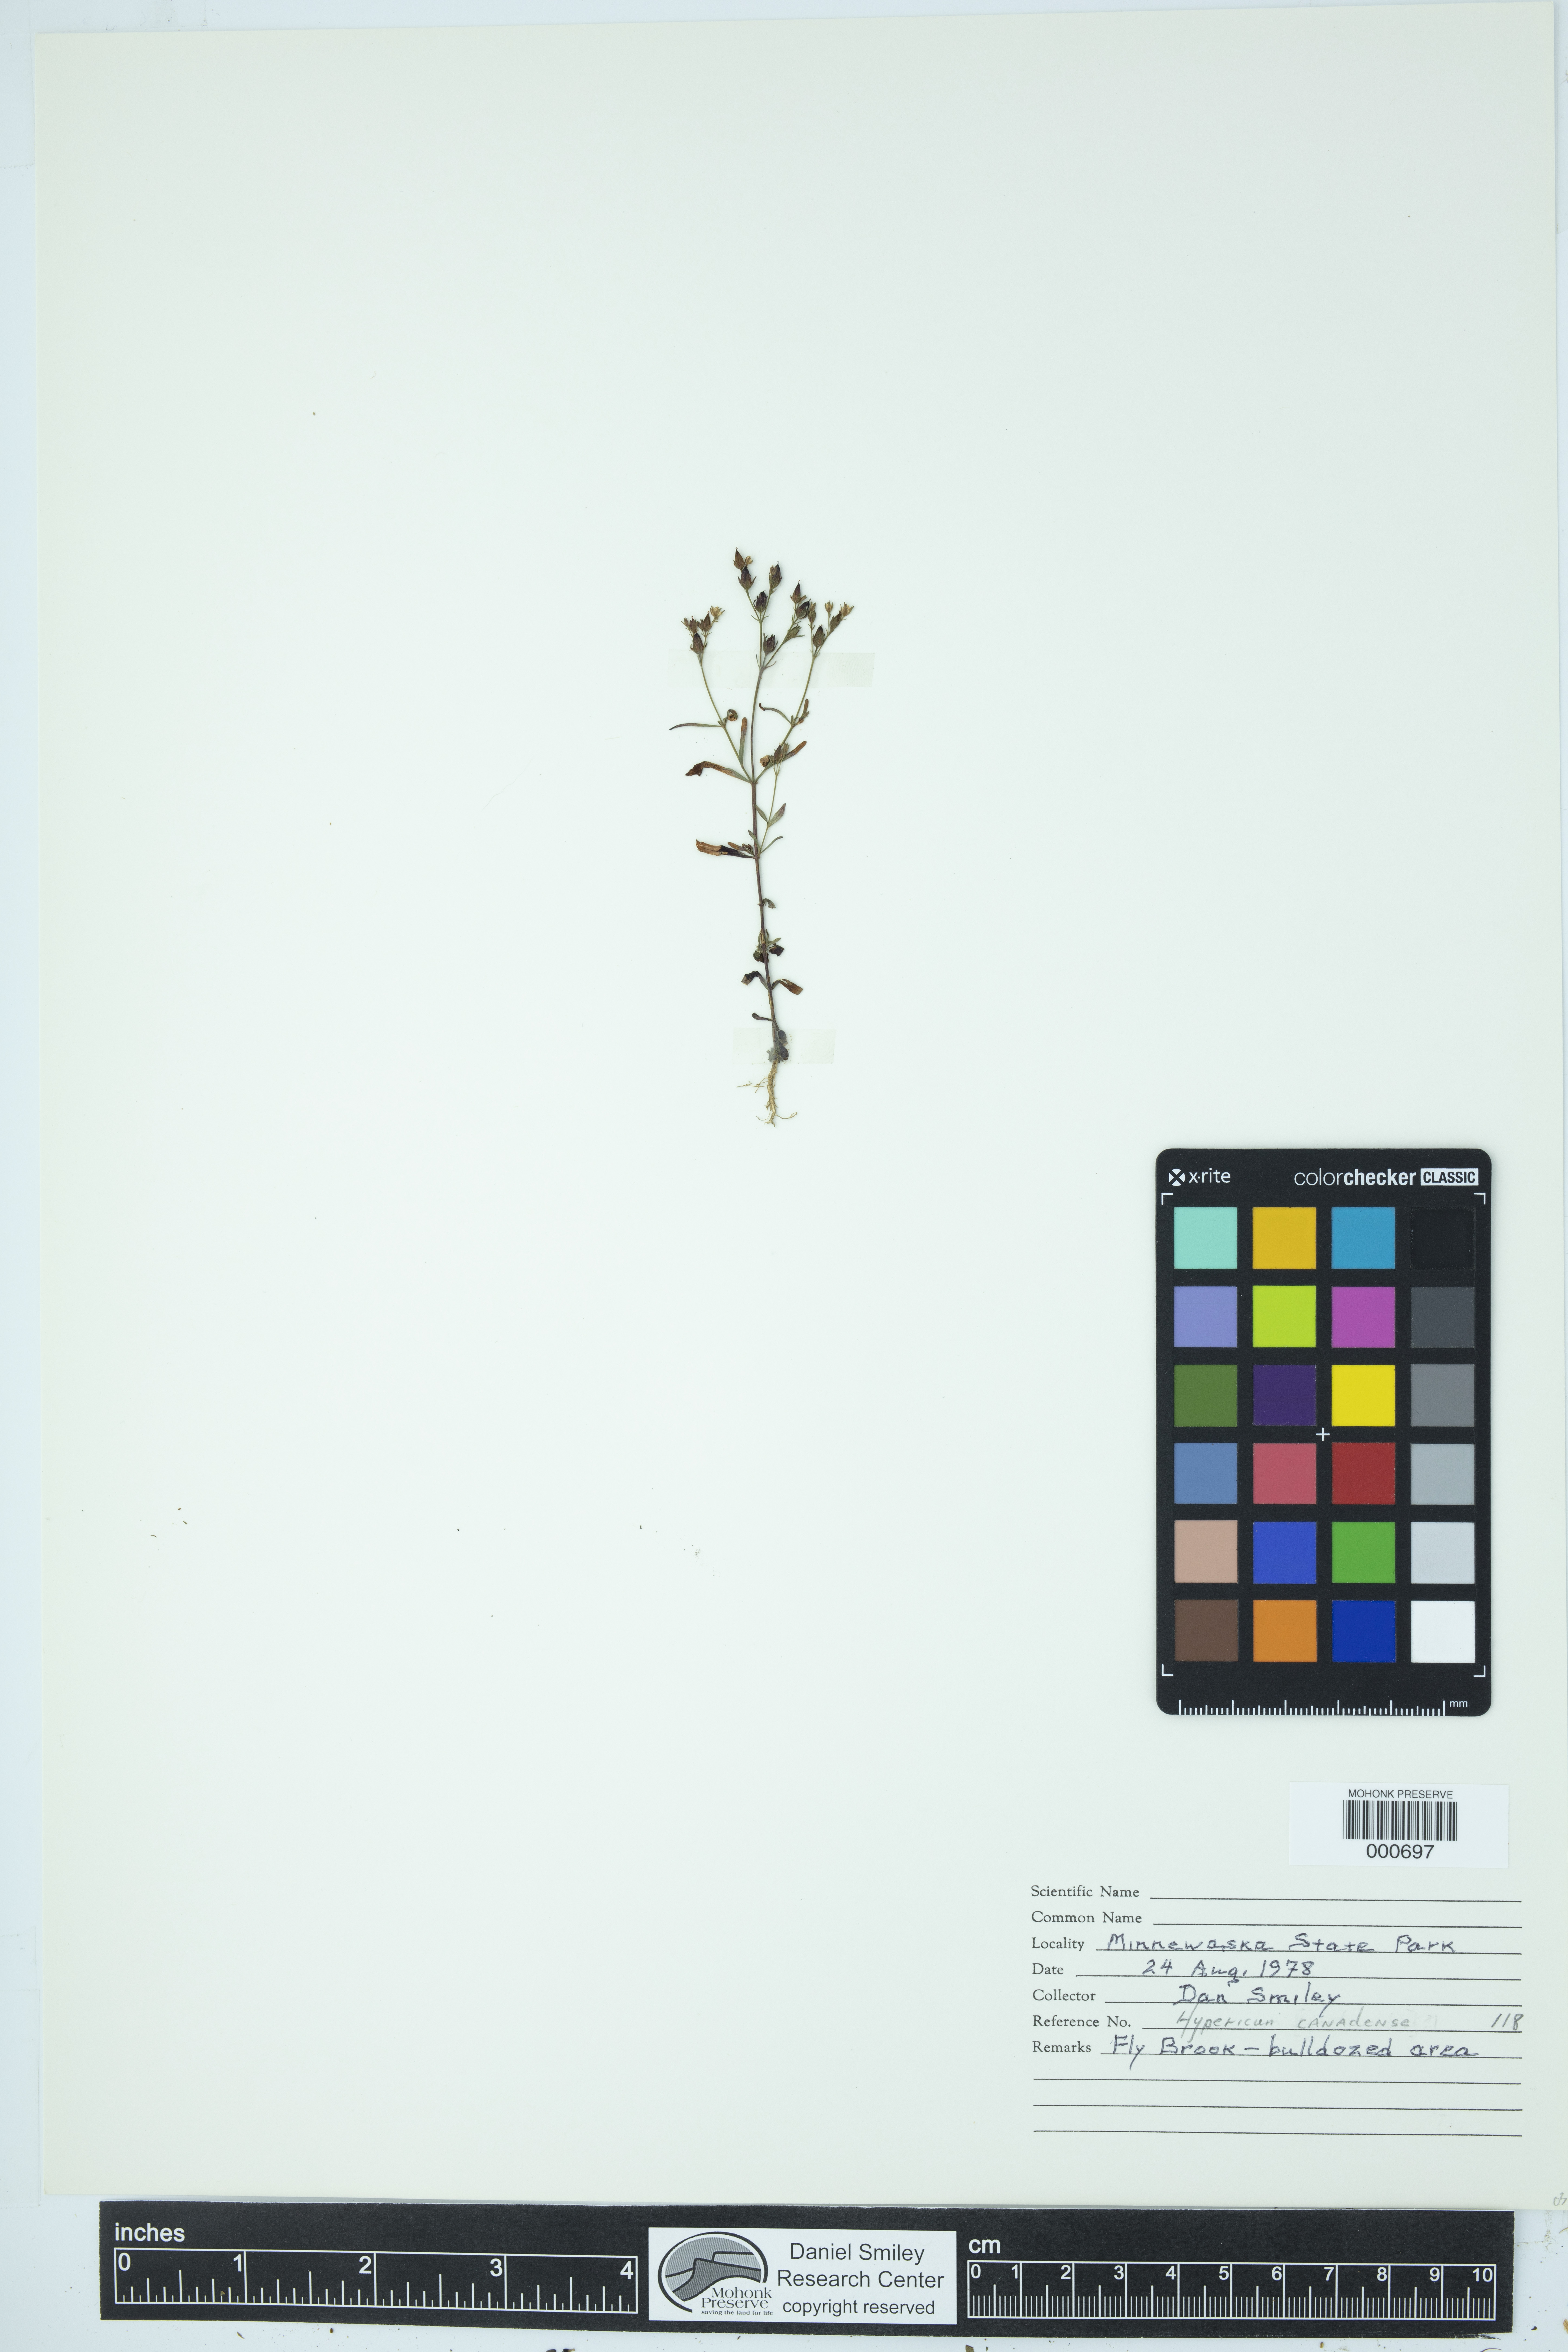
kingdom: Plantae
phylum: Tracheophyta
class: Magnoliopsida
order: Malpighiales
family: Hypericaceae
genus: Hypericum
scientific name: Hypericum canadense
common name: Irish st. john's-wort
